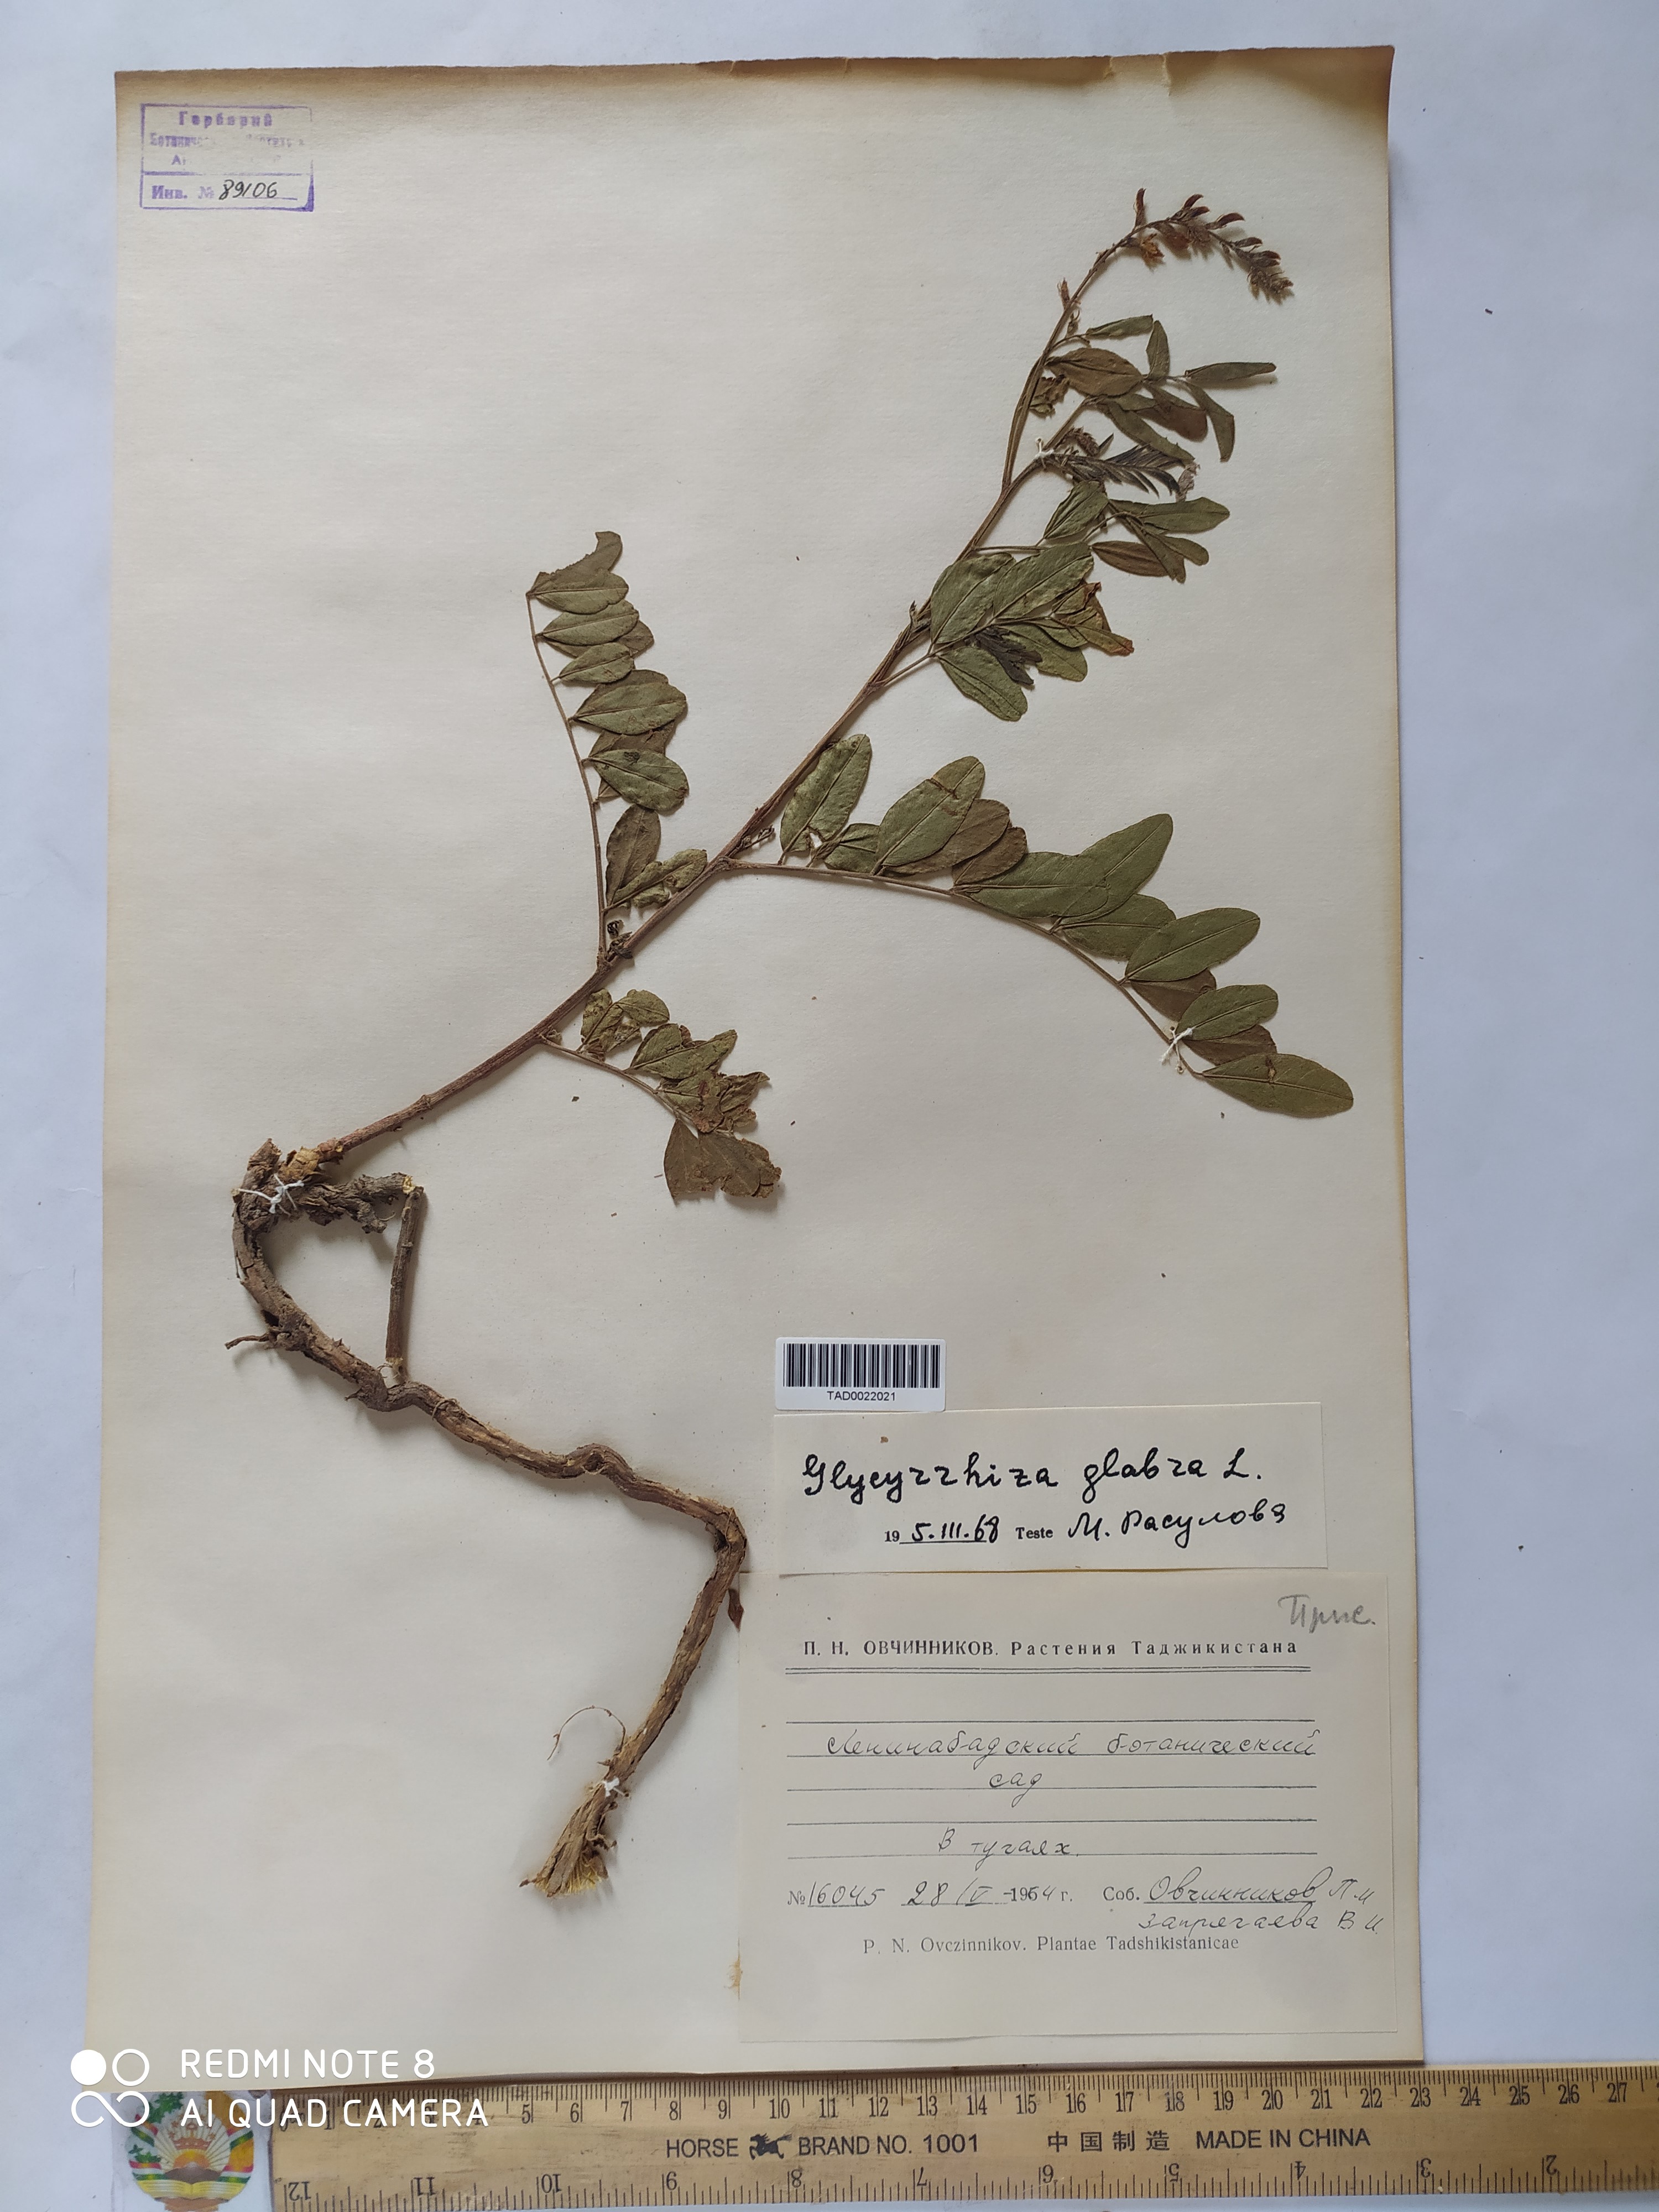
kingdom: Plantae
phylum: Tracheophyta
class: Magnoliopsida
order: Fabales
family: Fabaceae
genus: Glycyrrhiza
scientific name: Glycyrrhiza glabra
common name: Liquorice
